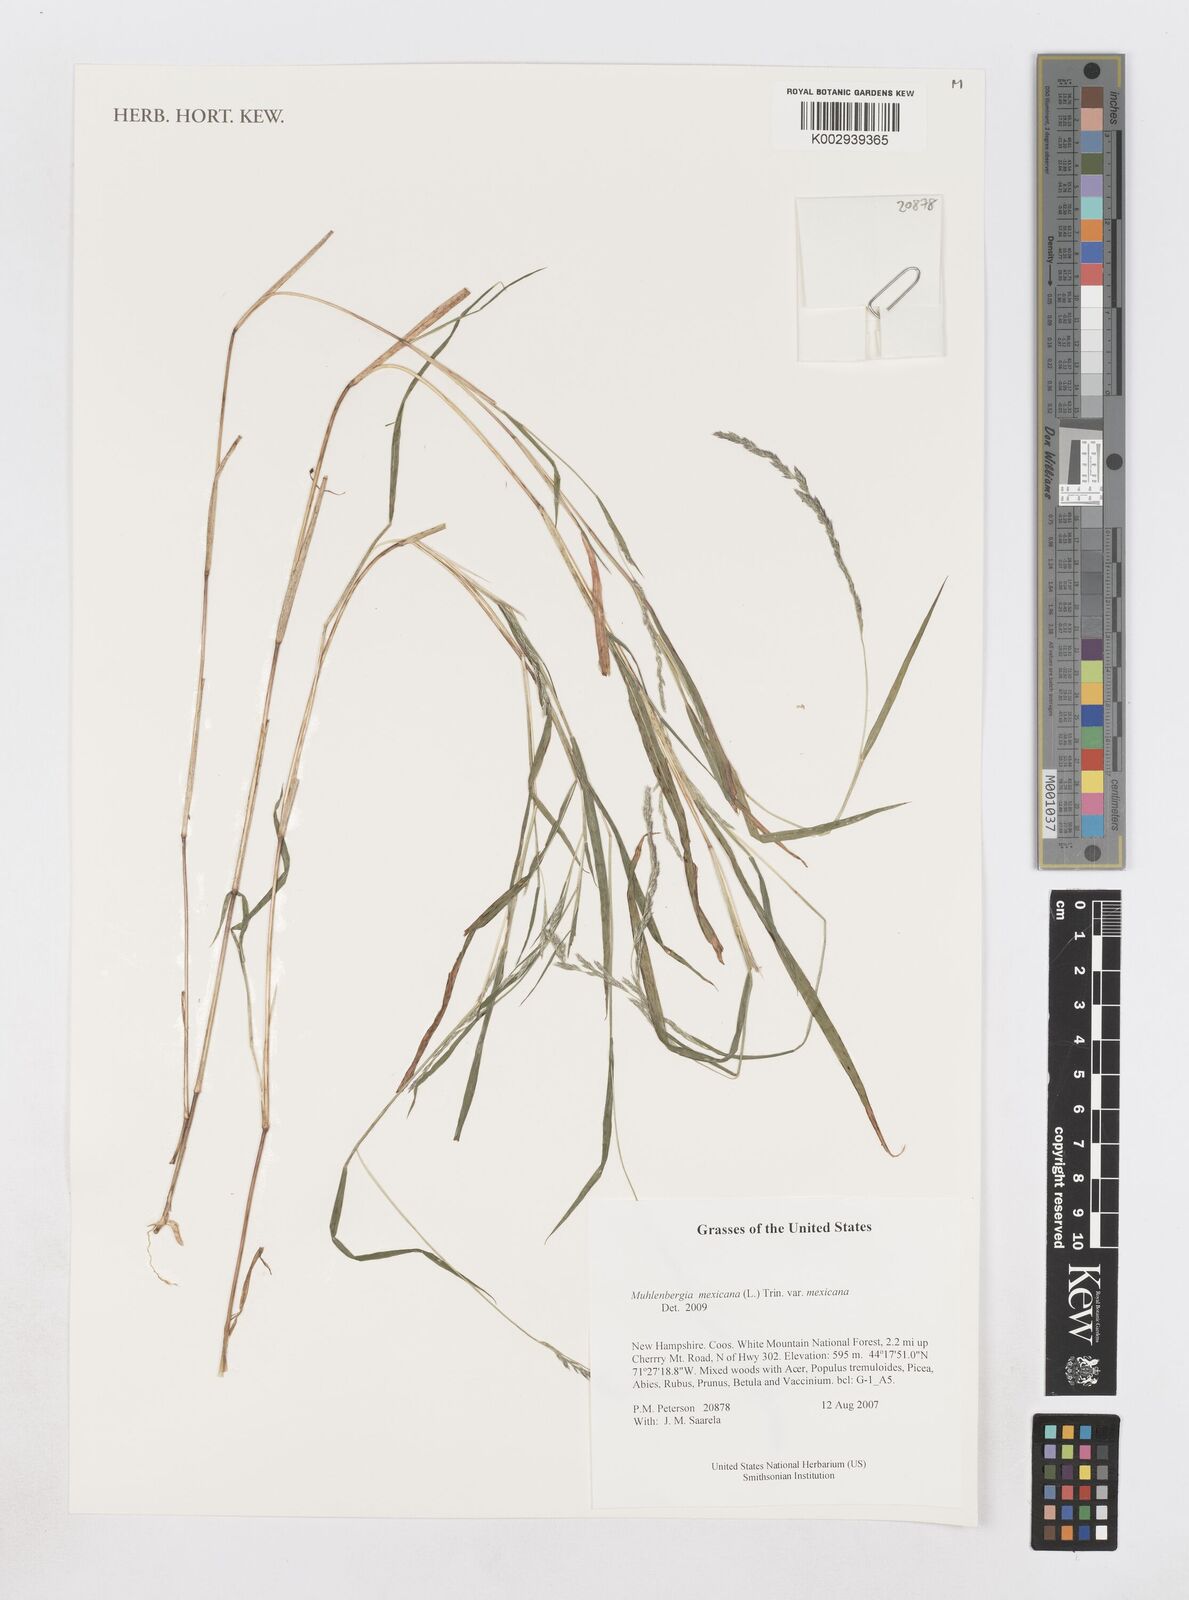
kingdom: Plantae
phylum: Tracheophyta
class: Liliopsida
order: Poales
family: Poaceae
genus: Muhlenbergia
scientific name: Muhlenbergia mexicana
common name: Mexican muhly
